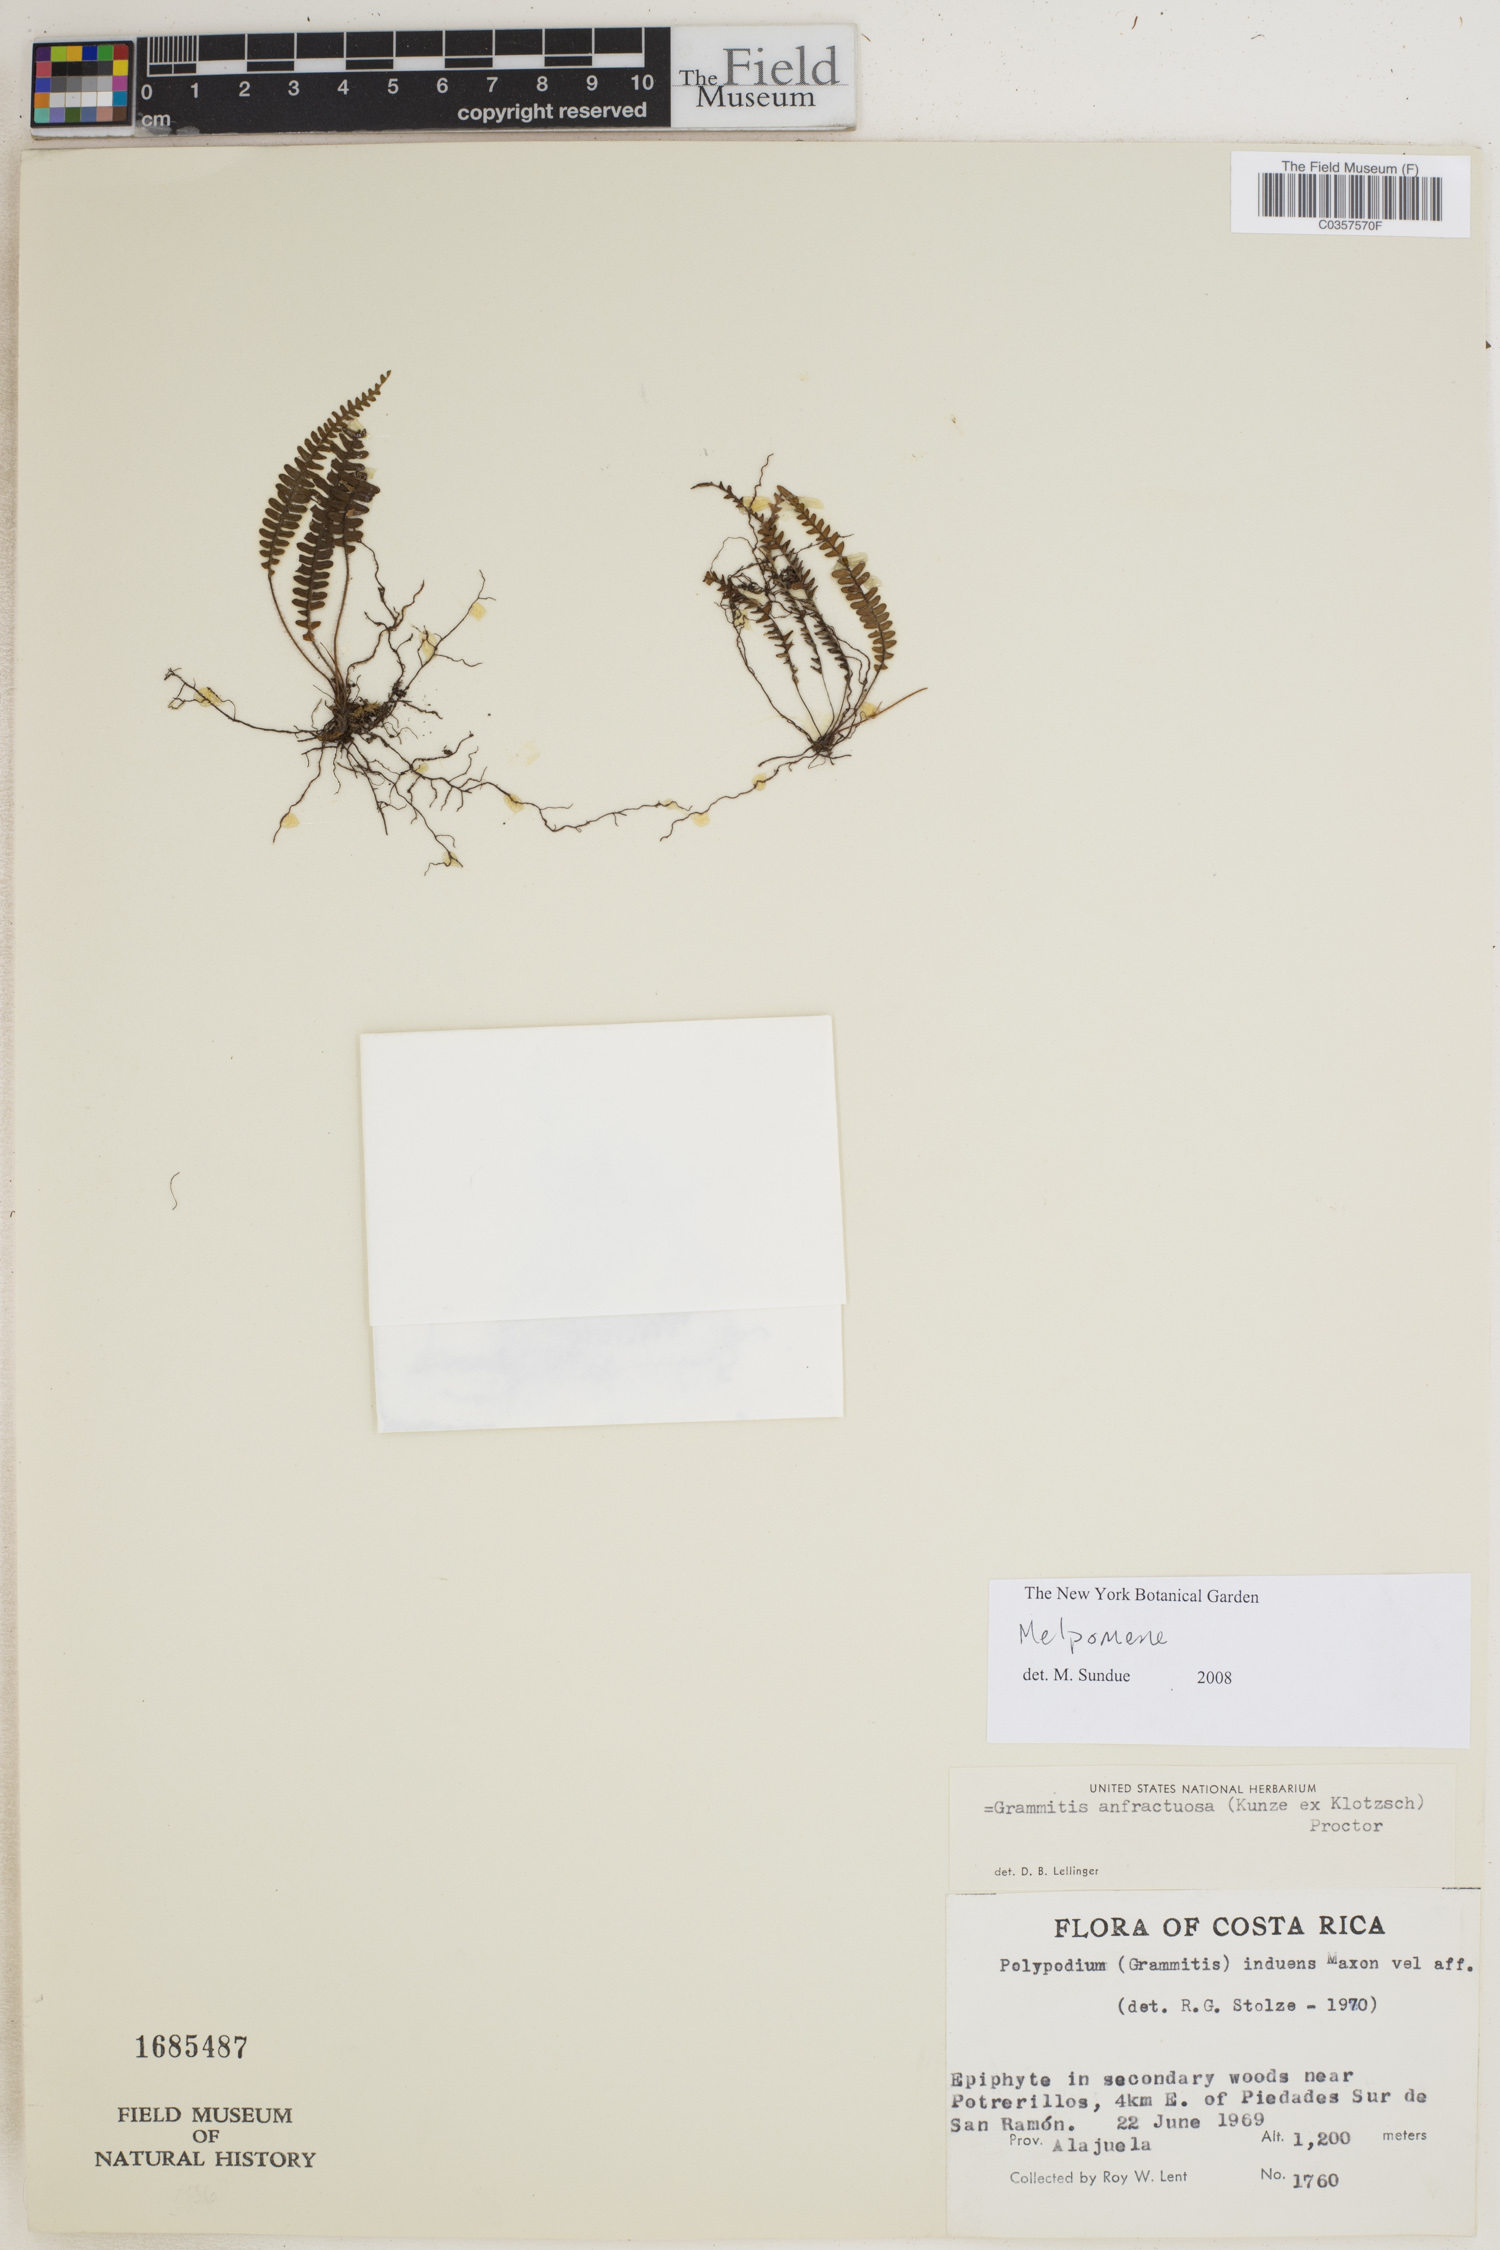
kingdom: Plantae
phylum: Tracheophyta
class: Polypodiopsida
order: Polypodiales
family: Polypodiaceae
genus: Melpomene
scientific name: Melpomene
